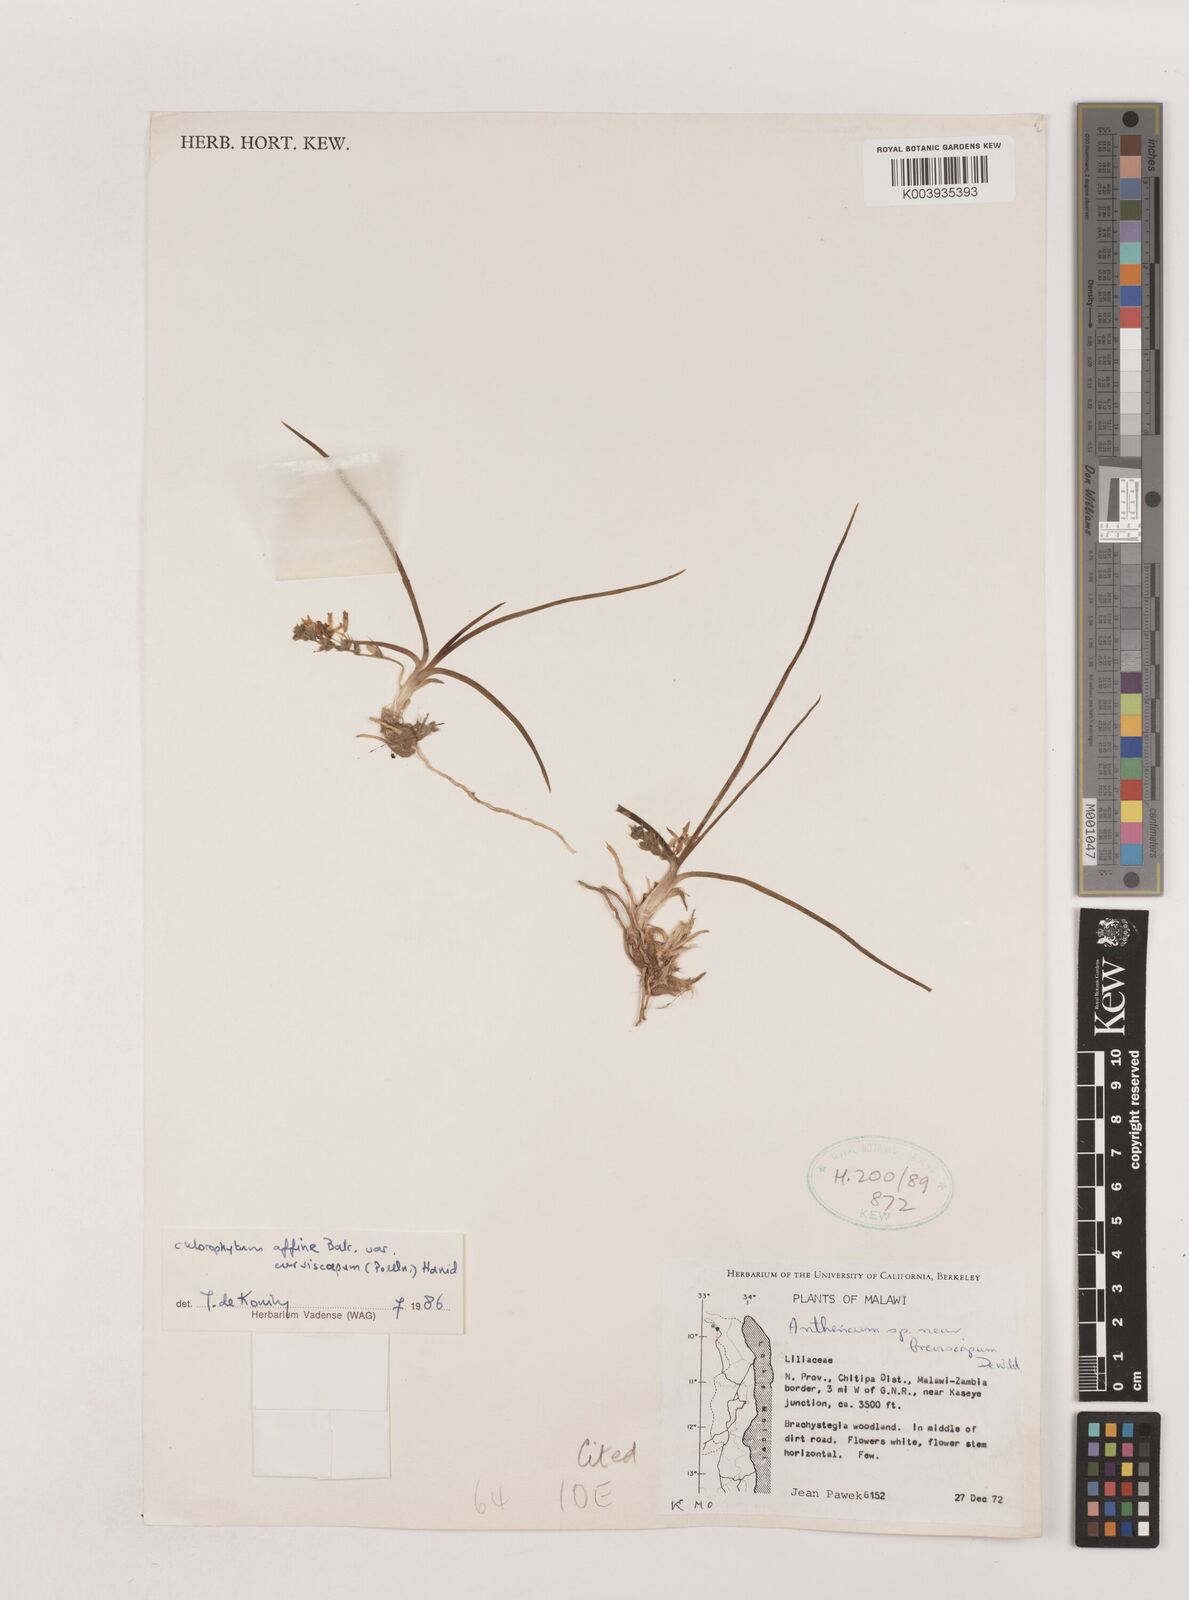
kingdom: Plantae
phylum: Tracheophyta
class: Liliopsida
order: Asparagales
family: Asparagaceae
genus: Chlorophytum
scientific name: Chlorophytum tordense
